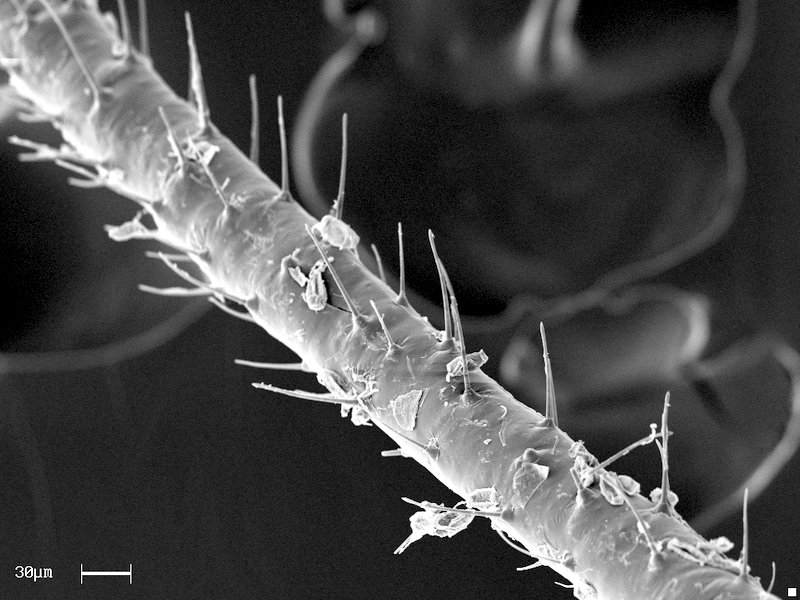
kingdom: Plantae
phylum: Tracheophyta
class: Magnoliopsida
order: Rosales
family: Rosaceae
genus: Geum
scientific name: Geum urbanum
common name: Wood avens
